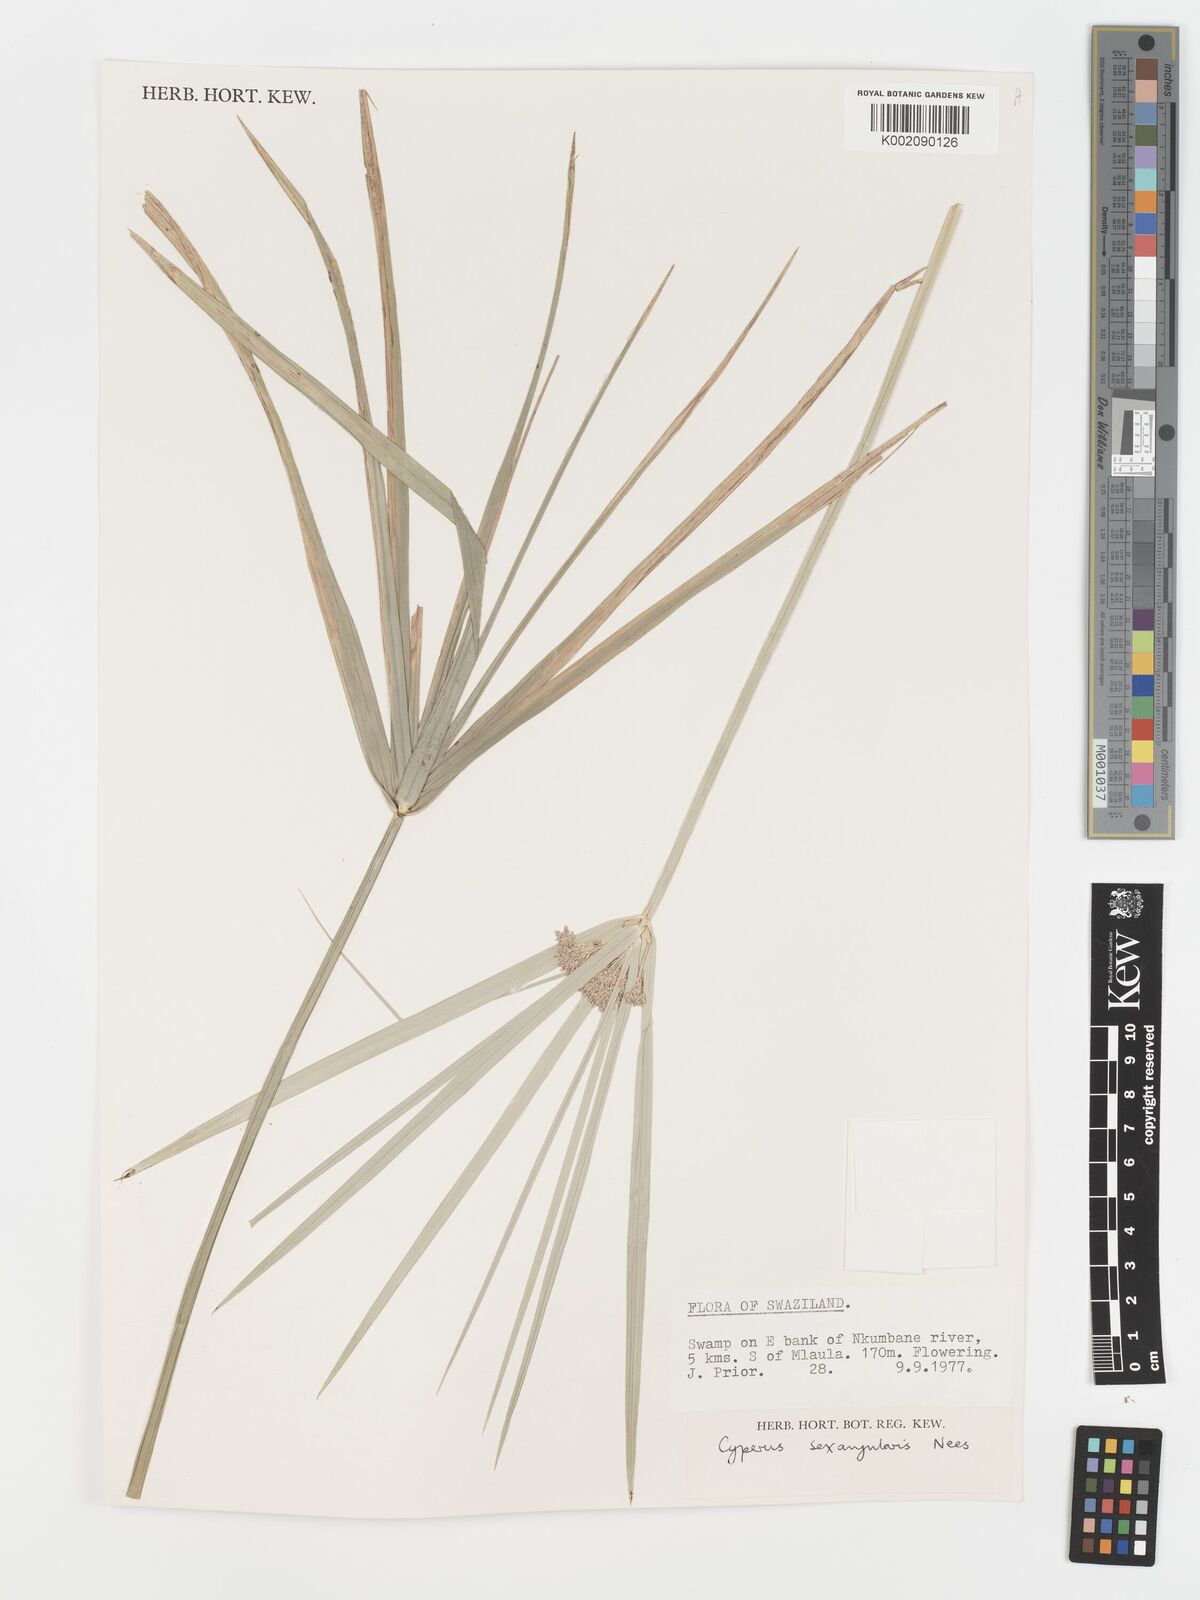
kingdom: Plantae
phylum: Tracheophyta
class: Liliopsida
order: Poales
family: Cyperaceae
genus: Cyperus
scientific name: Cyperus sexangularis
